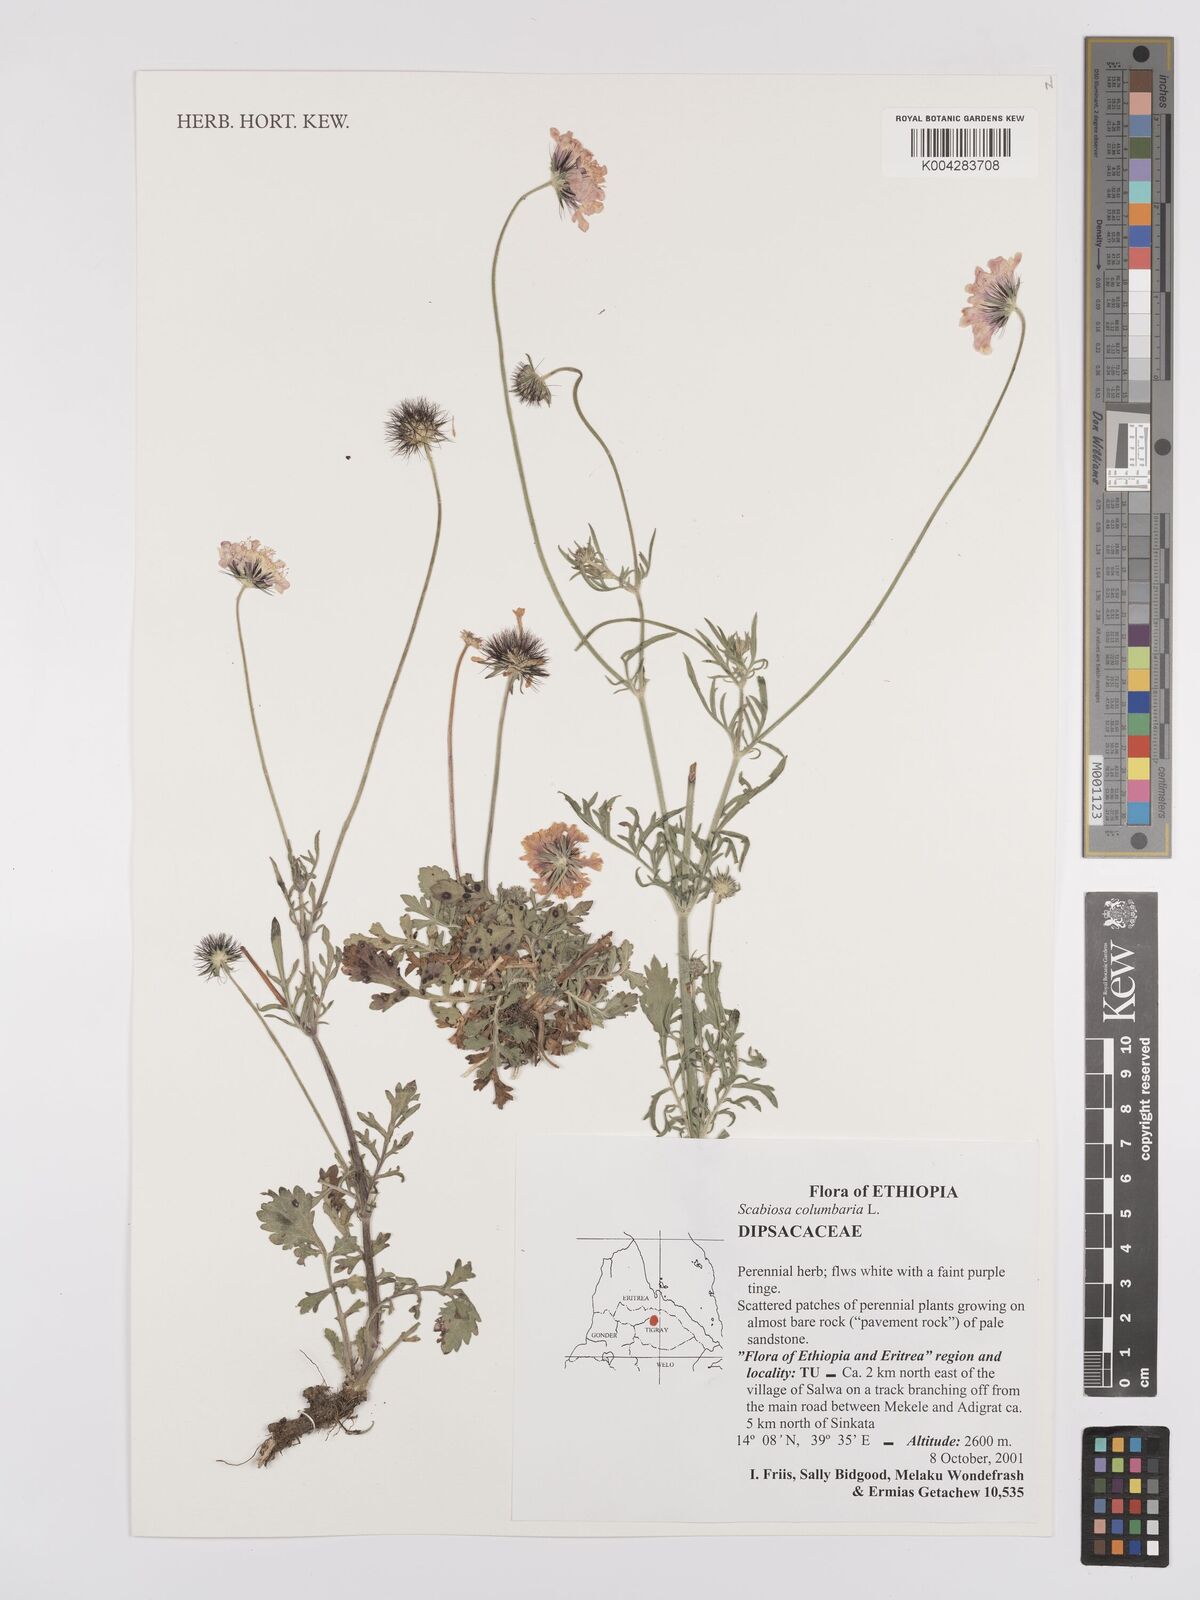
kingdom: Plantae
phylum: Tracheophyta
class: Magnoliopsida
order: Dipsacales
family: Caprifoliaceae
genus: Scabiosa
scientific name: Scabiosa columbaria
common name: Small scabious
